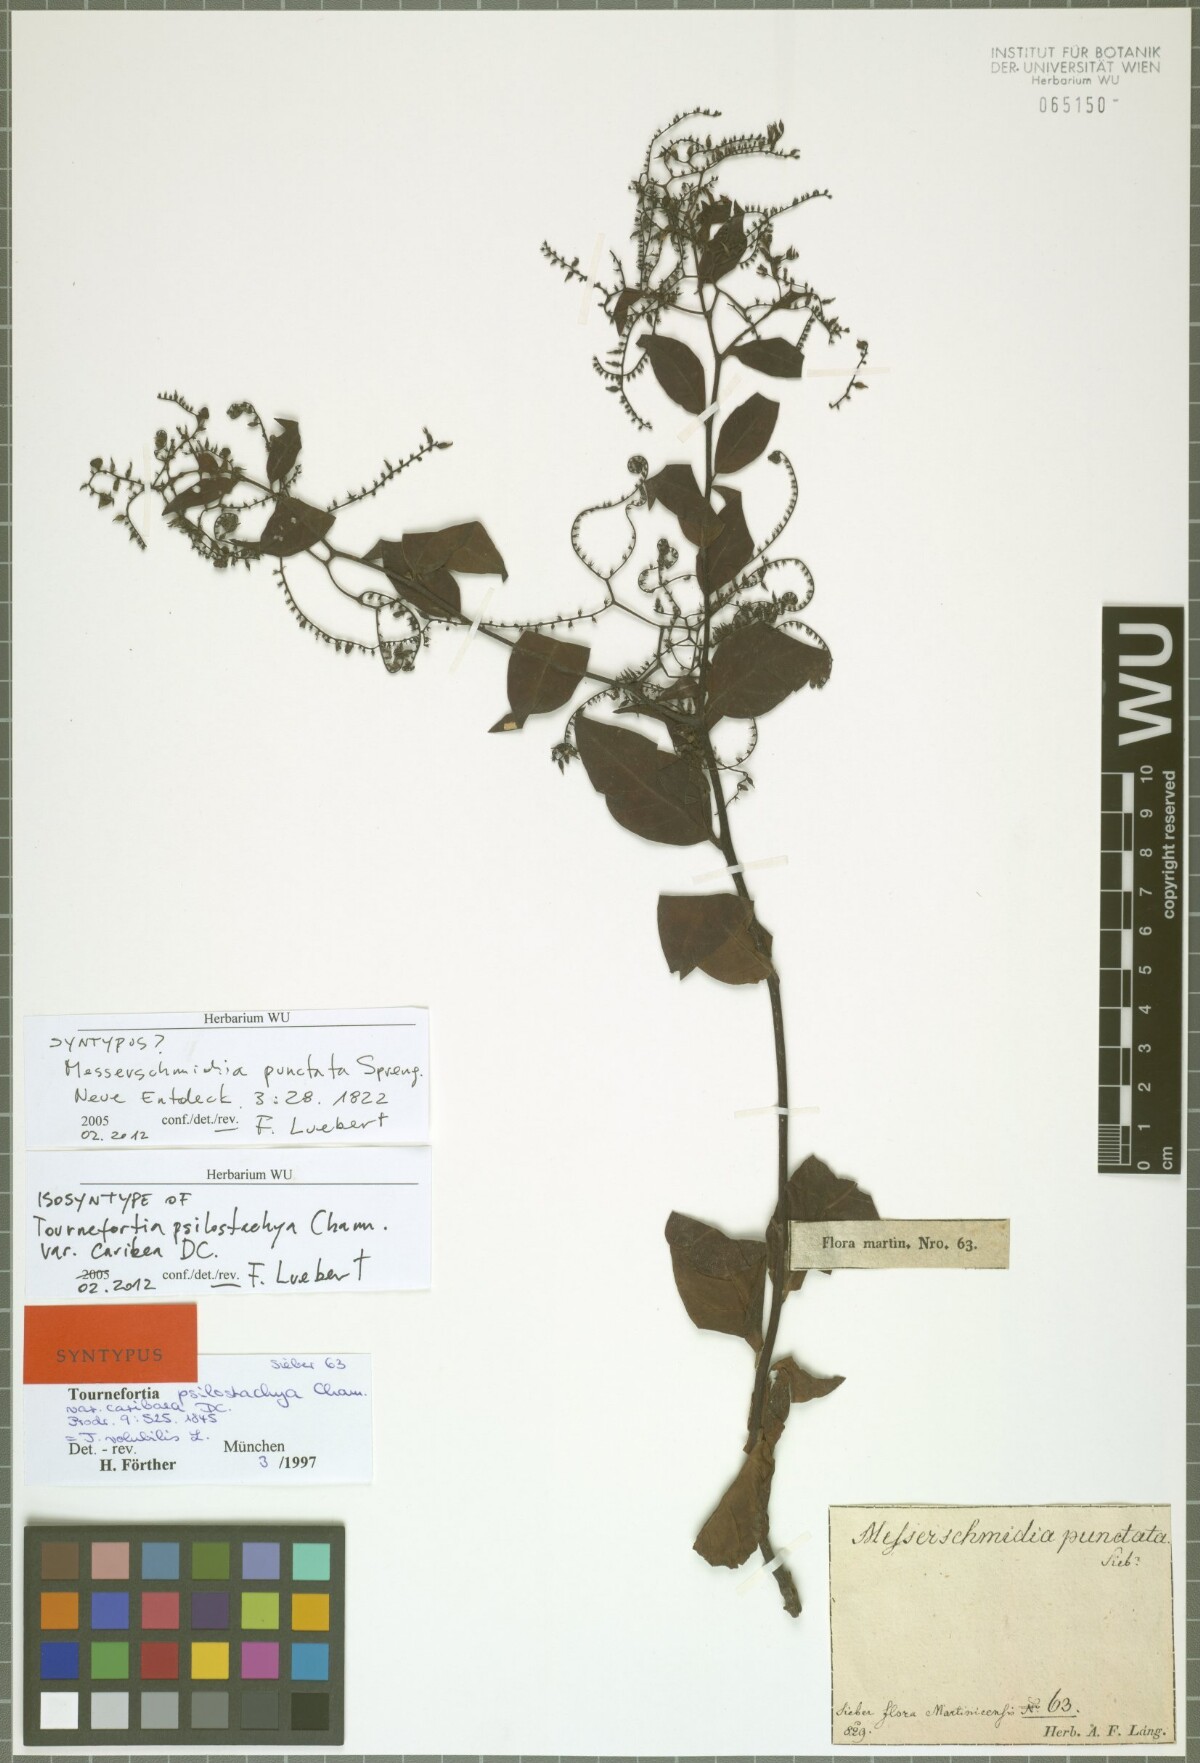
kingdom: Plantae
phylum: Tracheophyta
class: Magnoliopsida
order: Boraginales
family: Heliotropiaceae
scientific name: Heliotropiaceae
